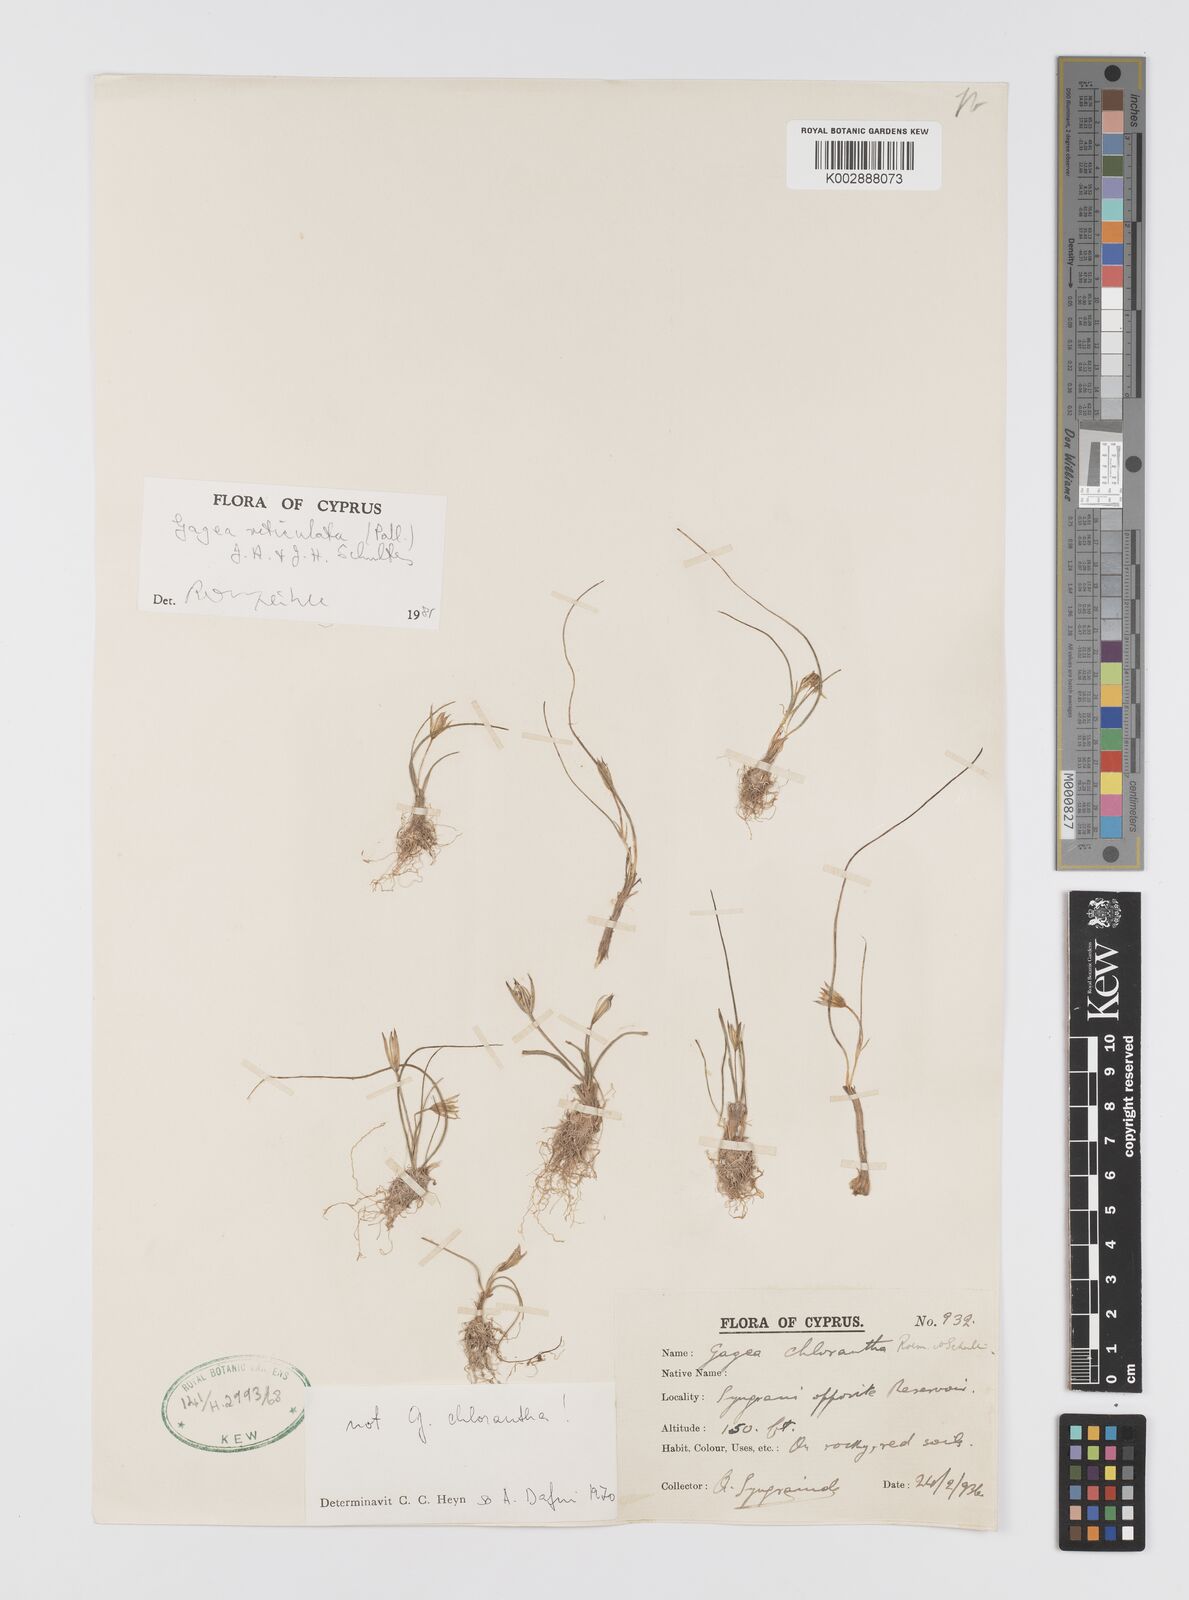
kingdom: Plantae
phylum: Tracheophyta
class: Liliopsida
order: Liliales
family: Liliaceae
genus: Gagea
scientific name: Gagea reticulata
